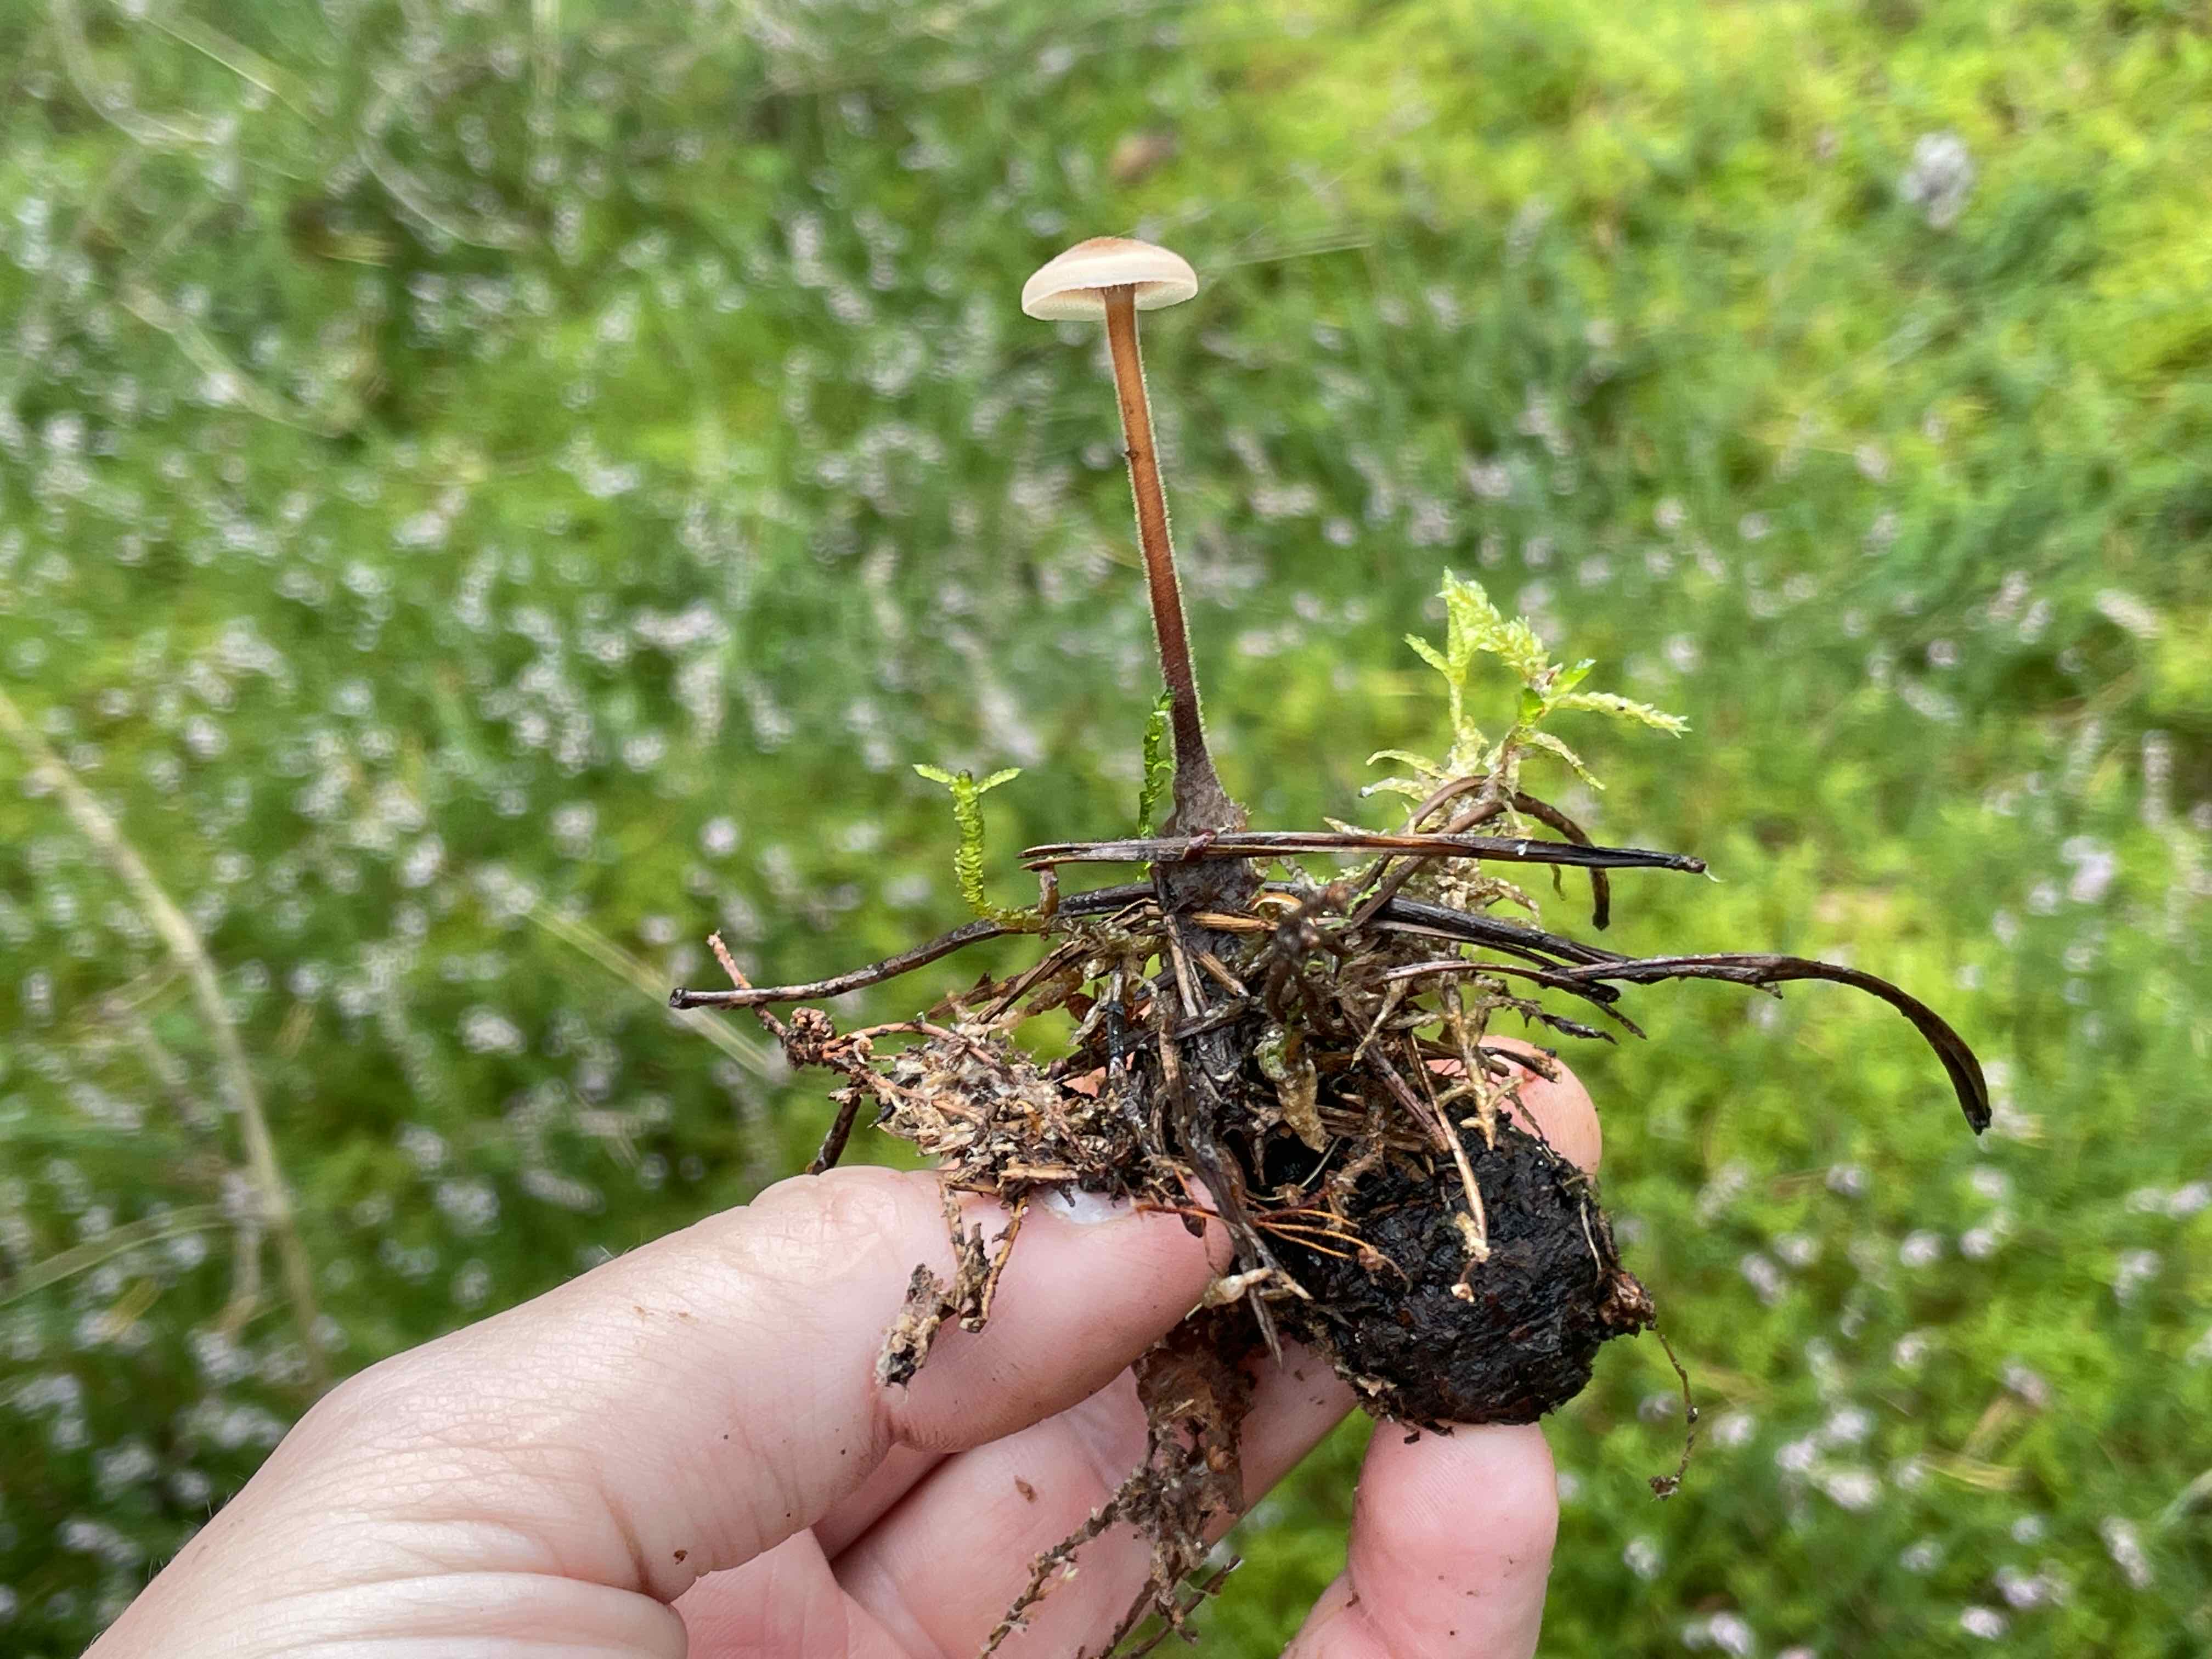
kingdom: Fungi
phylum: Basidiomycota
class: Agaricomycetes
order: Russulales
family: Auriscalpiaceae
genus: Auriscalpium
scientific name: Auriscalpium vulgare
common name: koglepigsvamp
